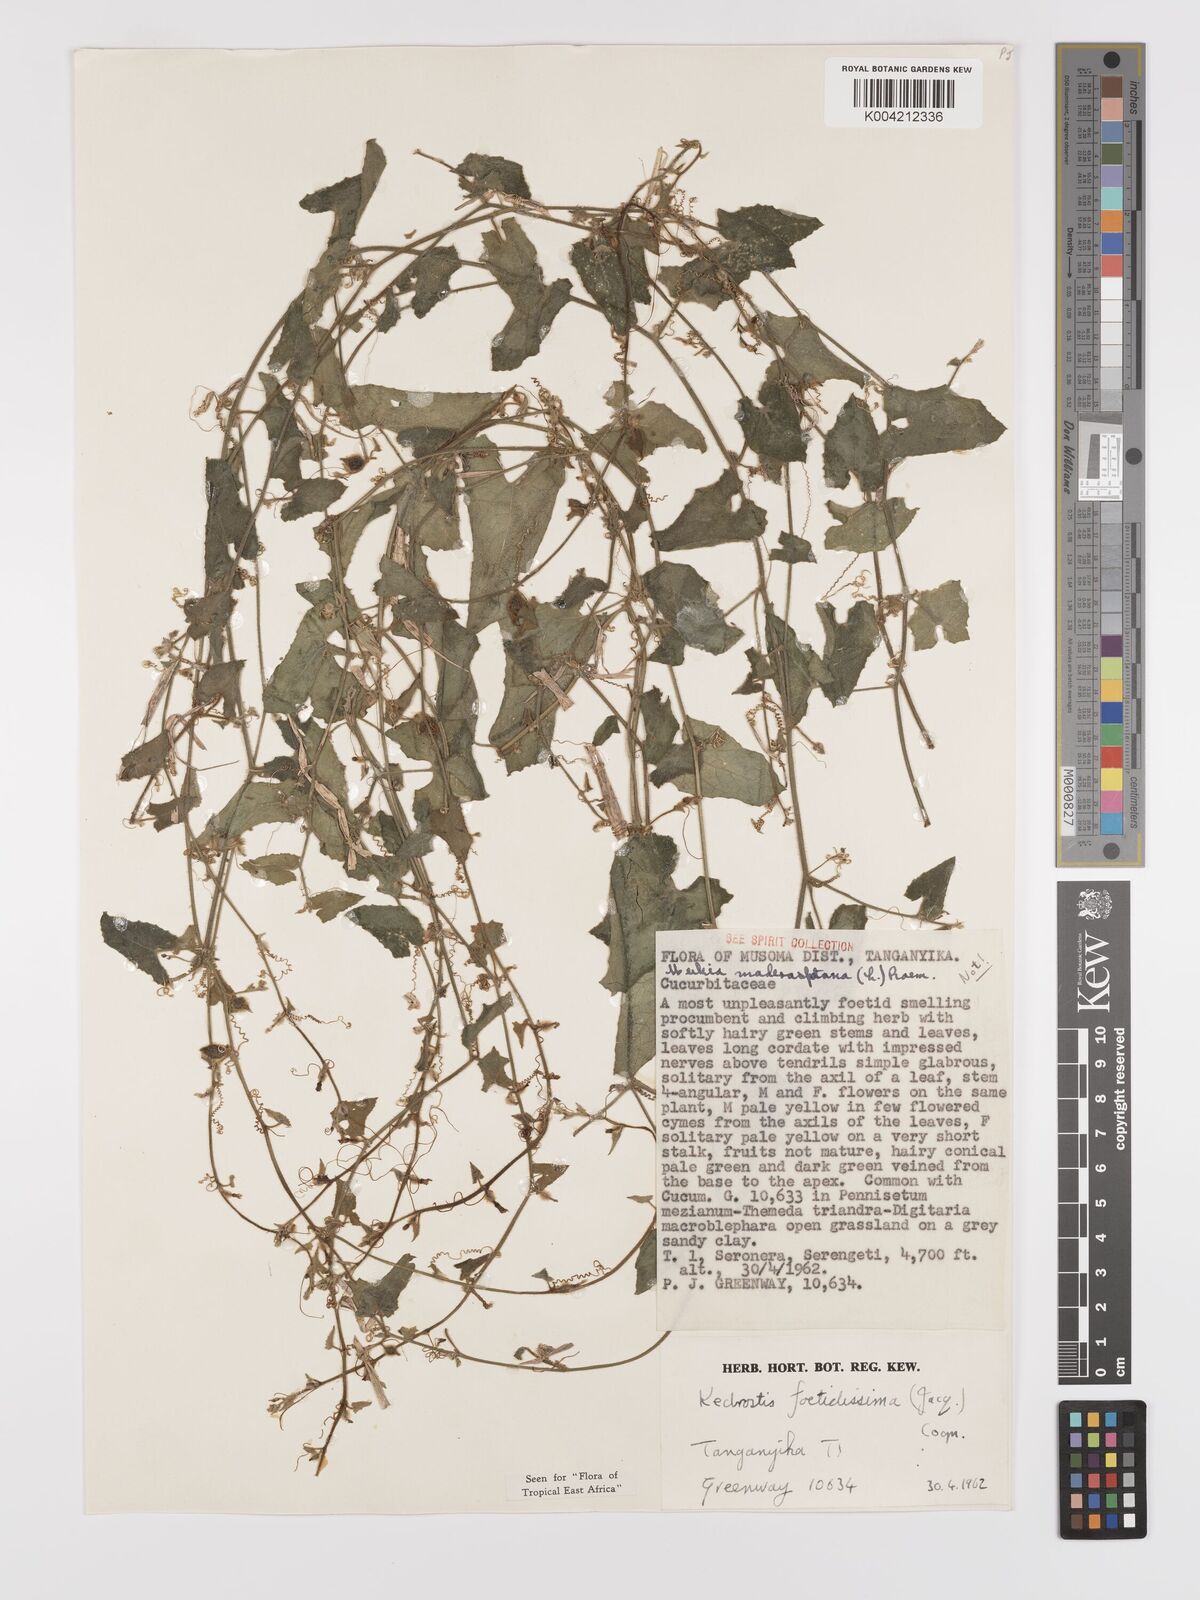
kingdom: Plantae
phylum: Tracheophyta
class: Magnoliopsida
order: Cucurbitales
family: Cucurbitaceae
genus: Kedrostis
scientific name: Kedrostis foetidissima
